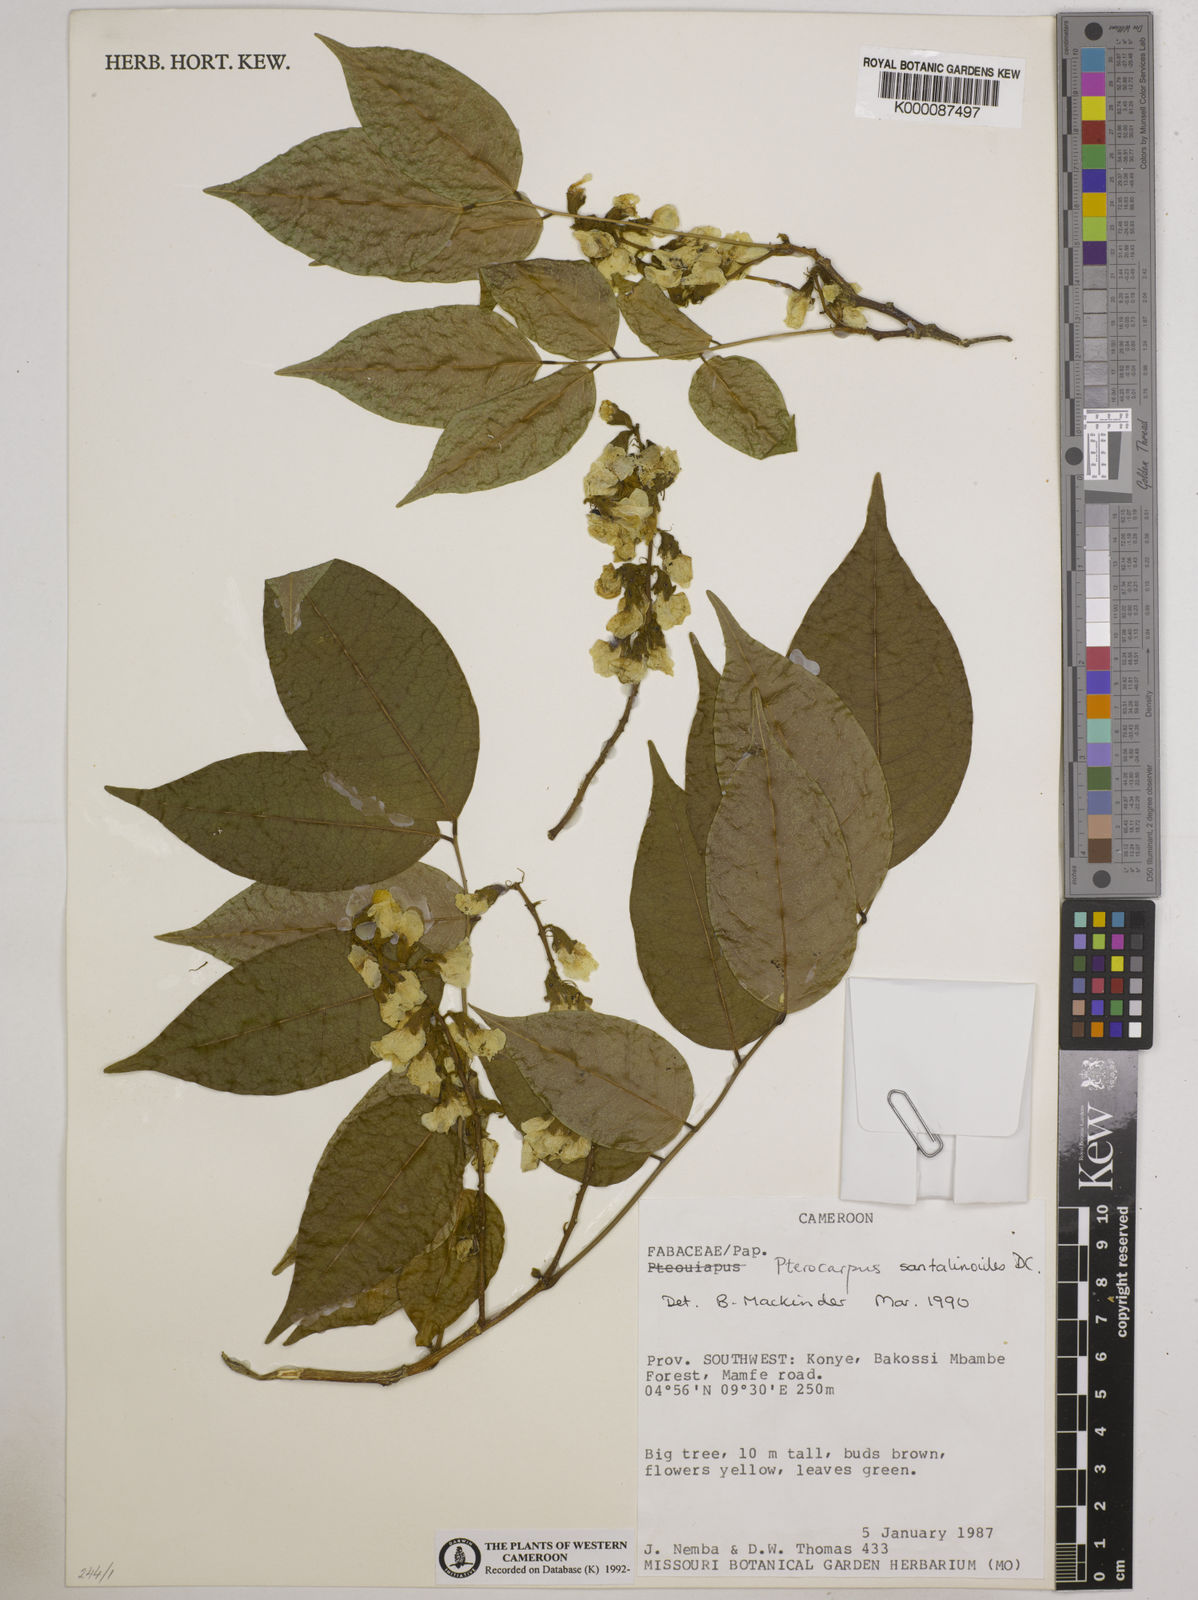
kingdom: Plantae
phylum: Tracheophyta
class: Magnoliopsida
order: Fabales
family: Fabaceae
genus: Pterocarpus
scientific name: Pterocarpus
